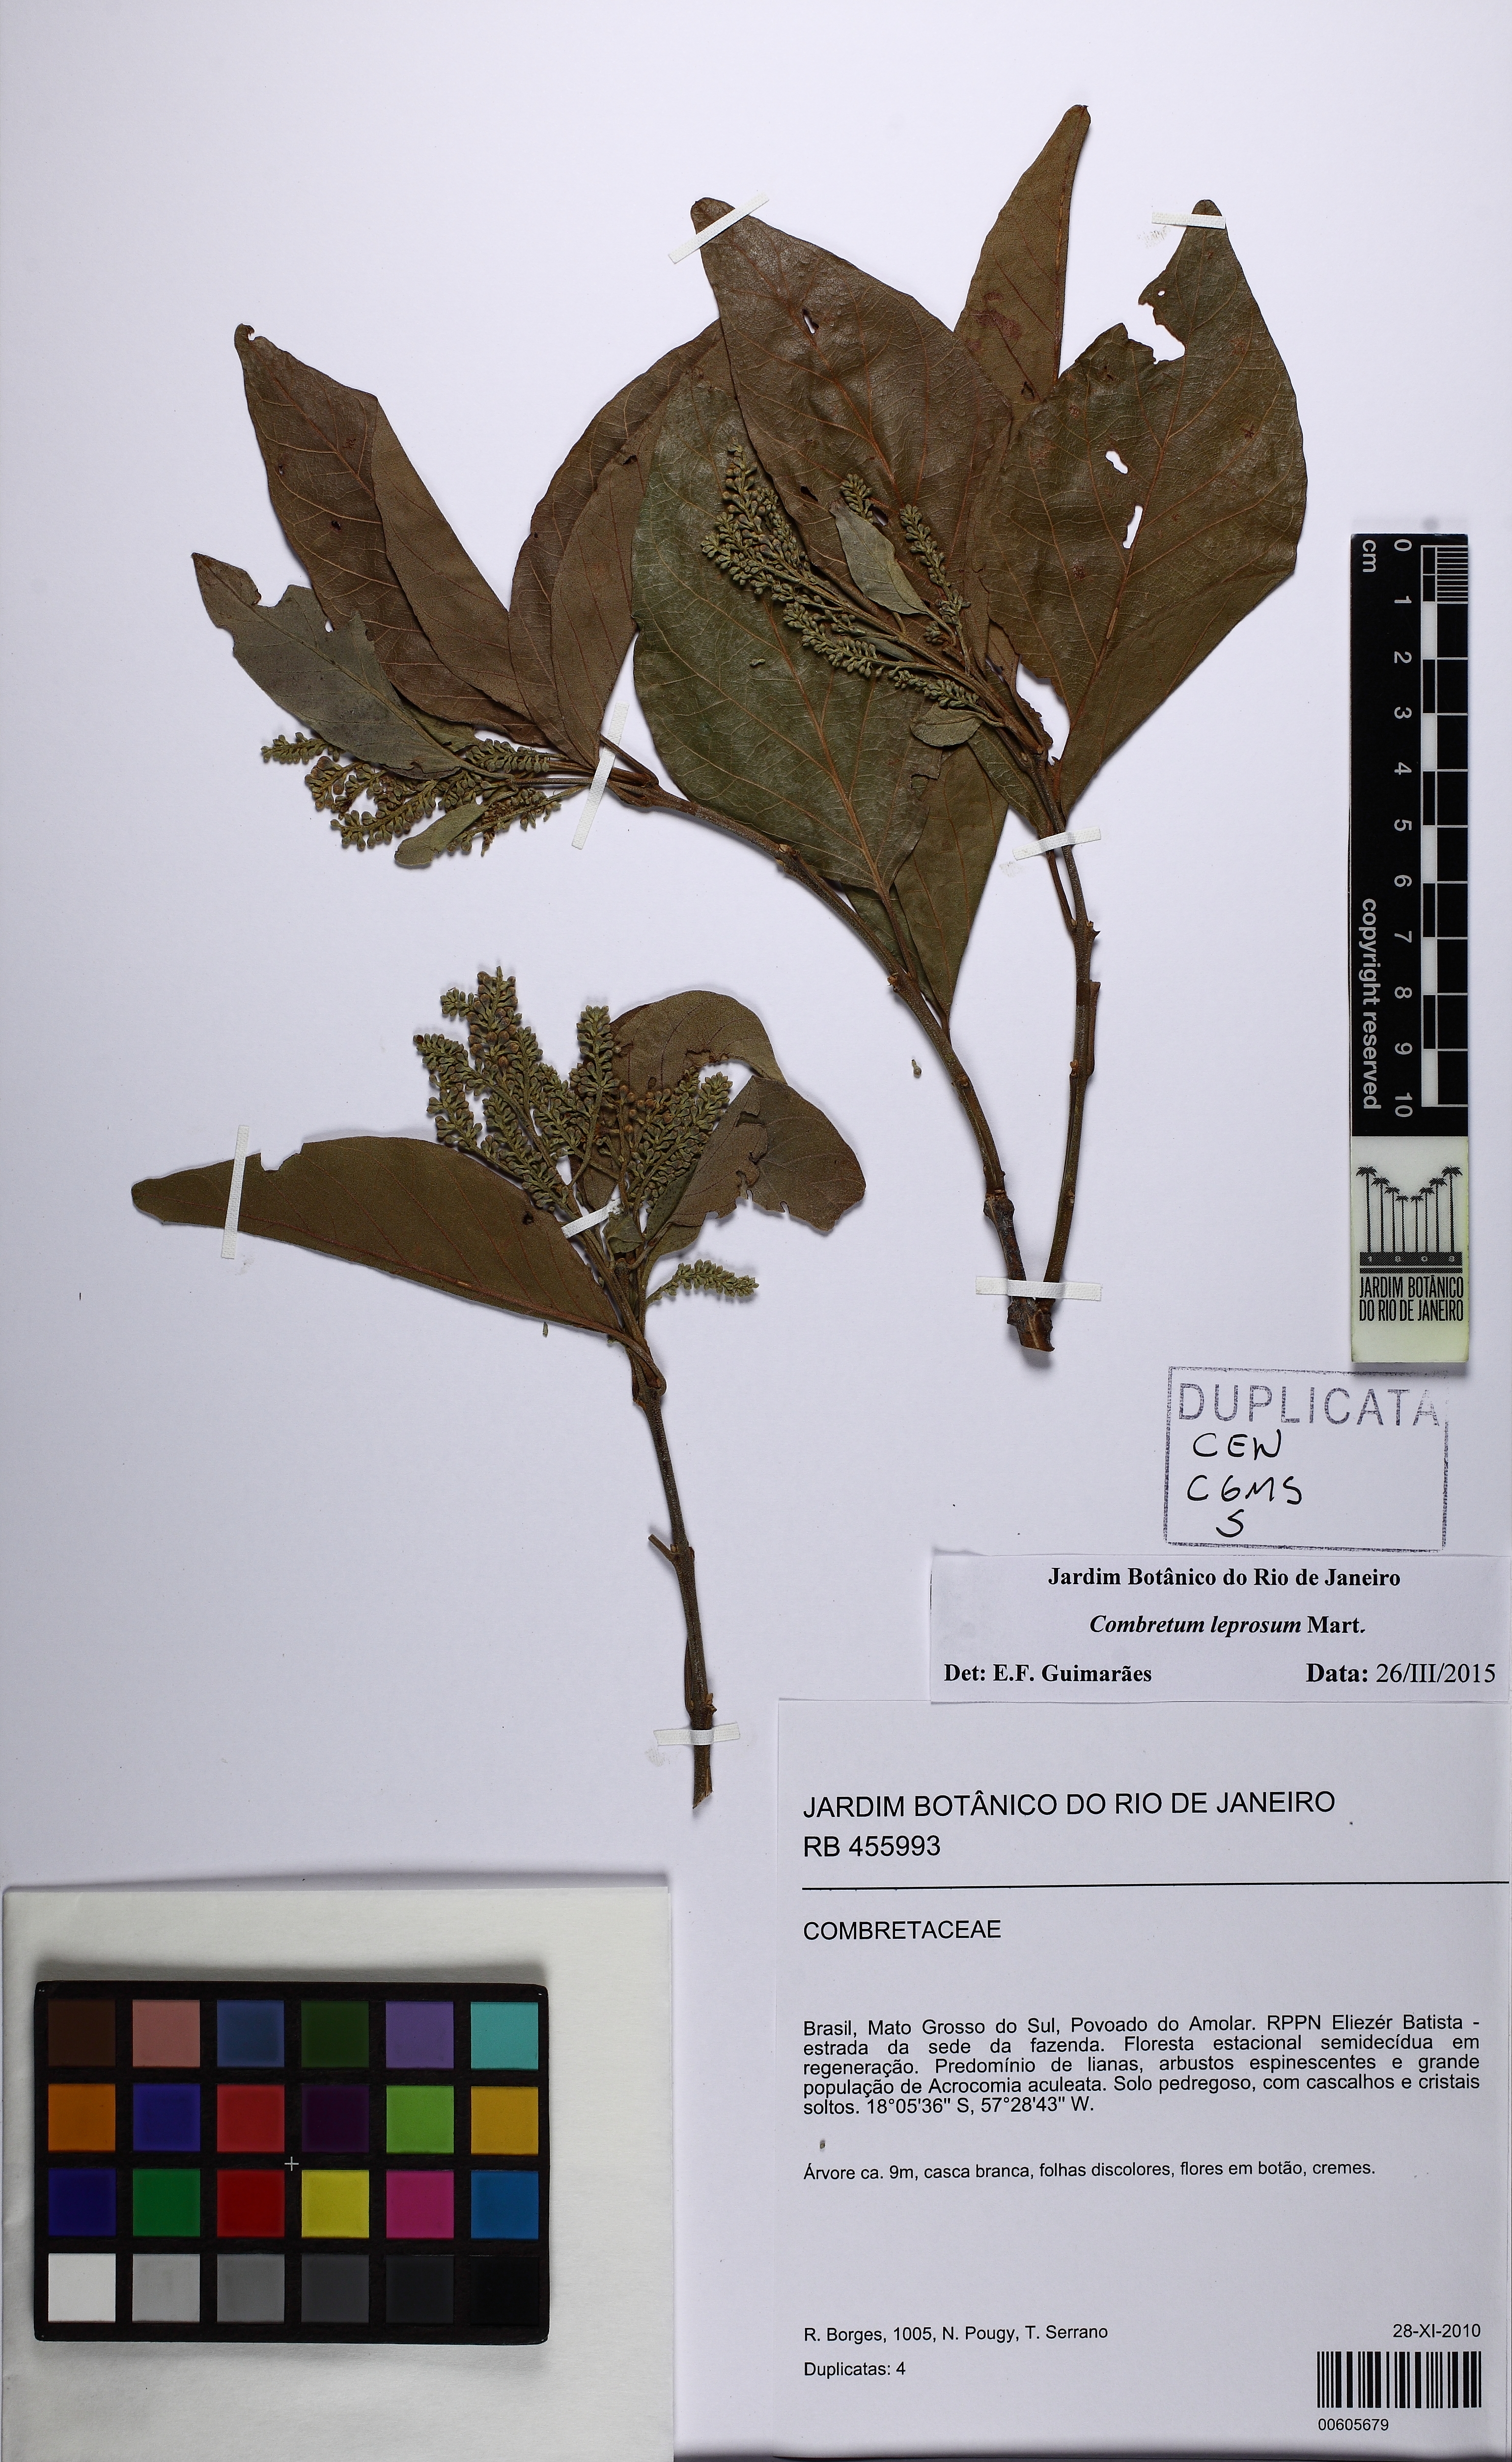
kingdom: Plantae
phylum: Tracheophyta
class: Magnoliopsida
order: Myrtales
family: Combretaceae
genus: Combretum
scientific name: Combretum leprosum
